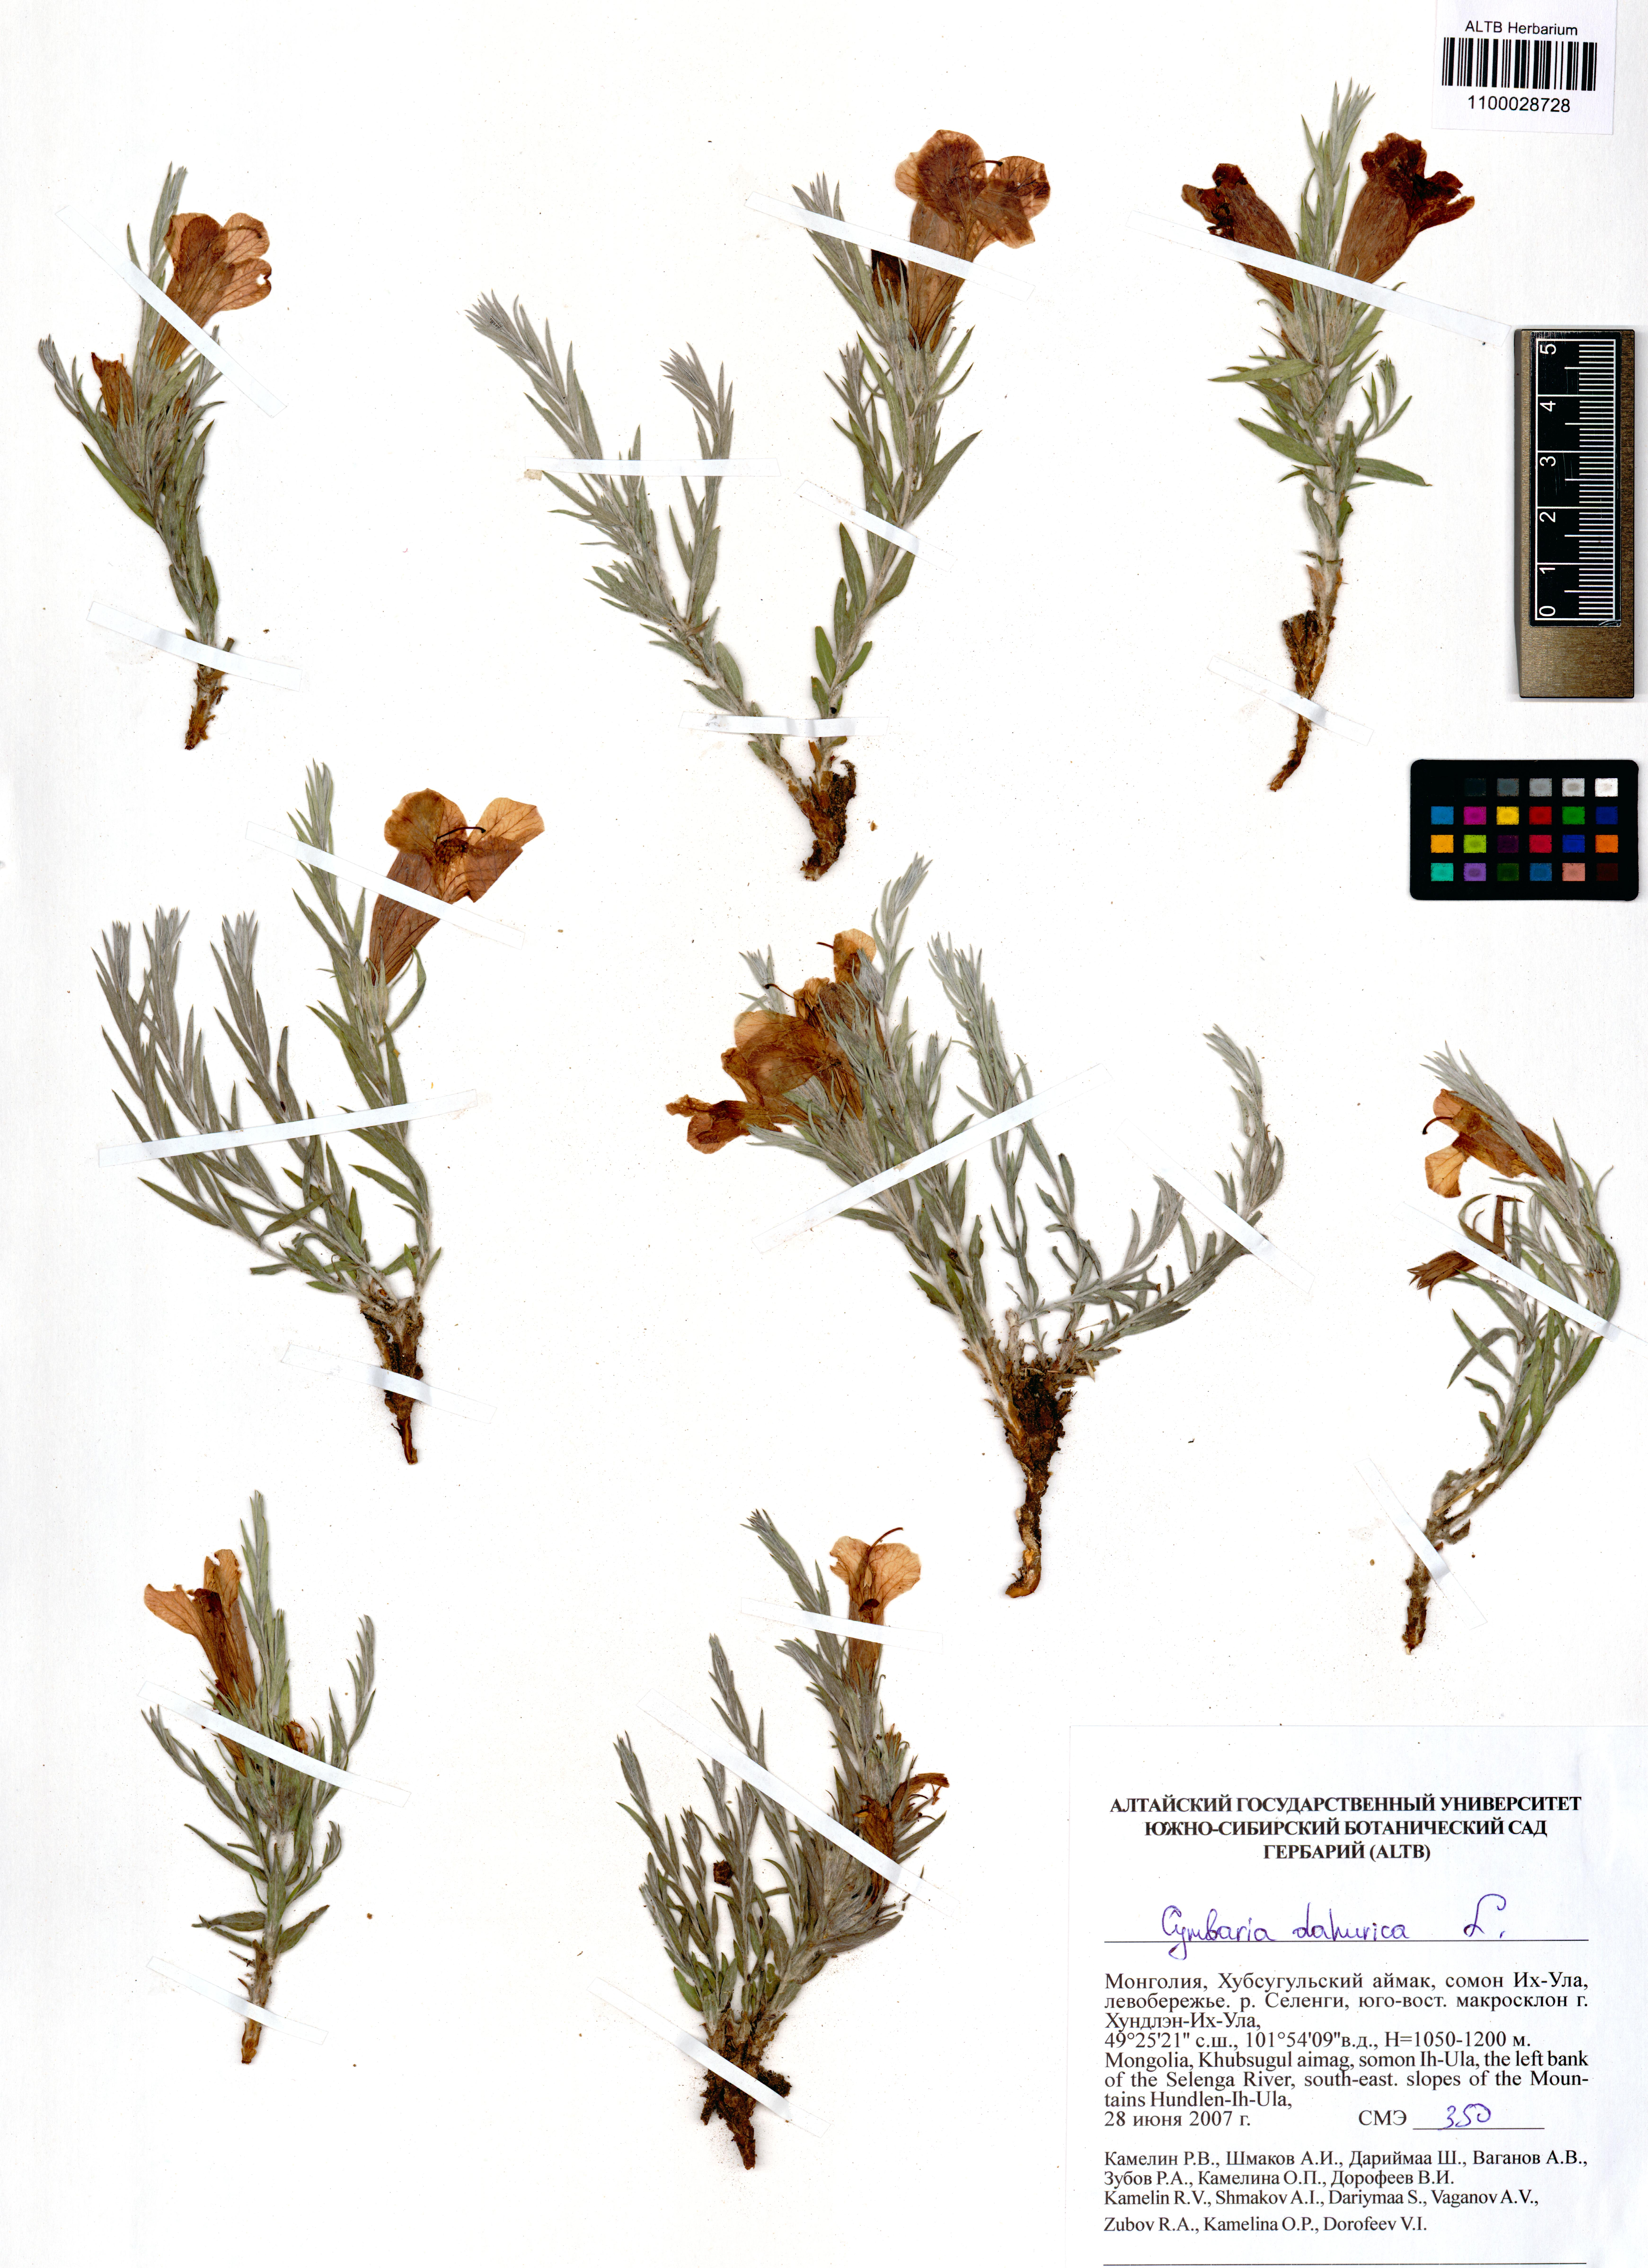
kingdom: Plantae
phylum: Tracheophyta
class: Magnoliopsida
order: Lamiales
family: Orobanchaceae
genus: Cymbaria
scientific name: Cymbaria daurica
